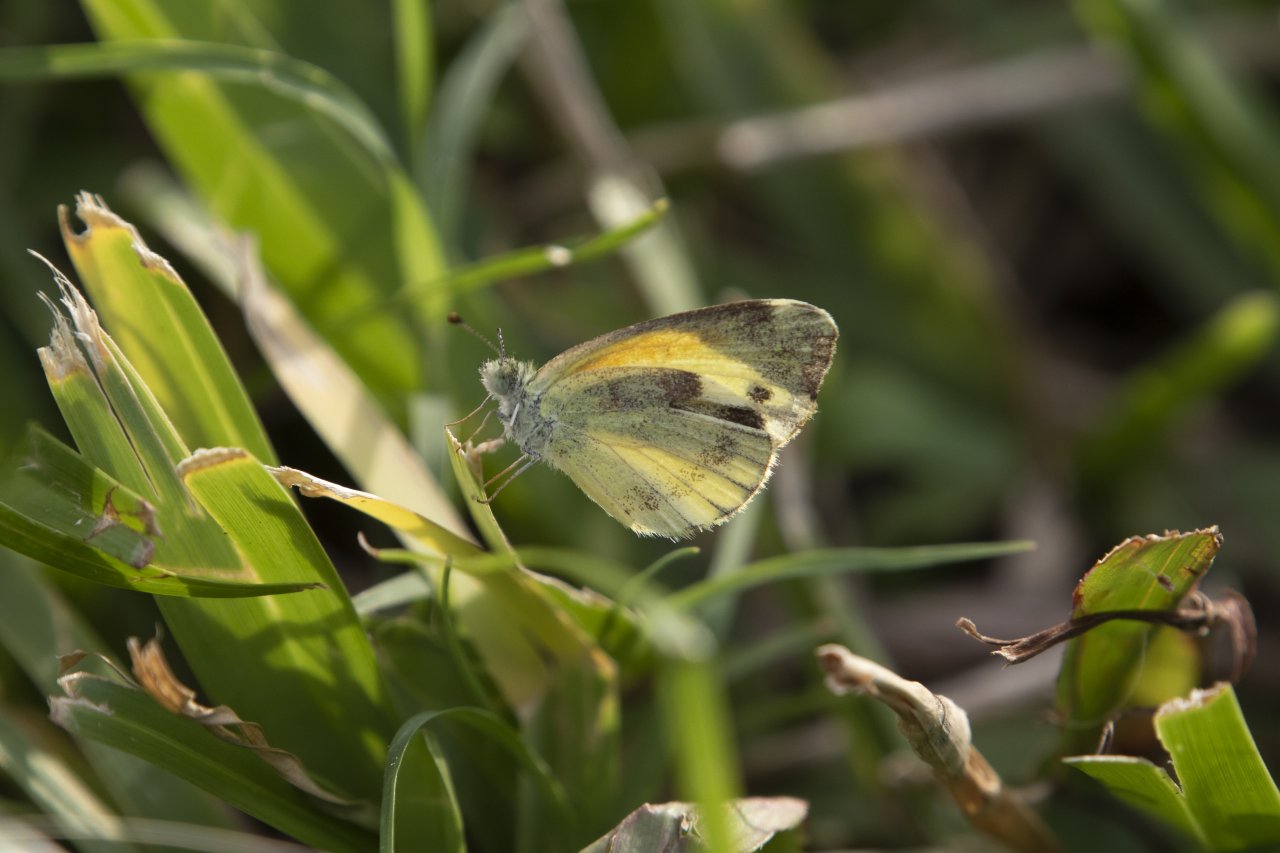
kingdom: Animalia
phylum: Arthropoda
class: Insecta
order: Lepidoptera
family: Pieridae
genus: Nathalis
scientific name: Nathalis iole
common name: Dainty Sulphur
